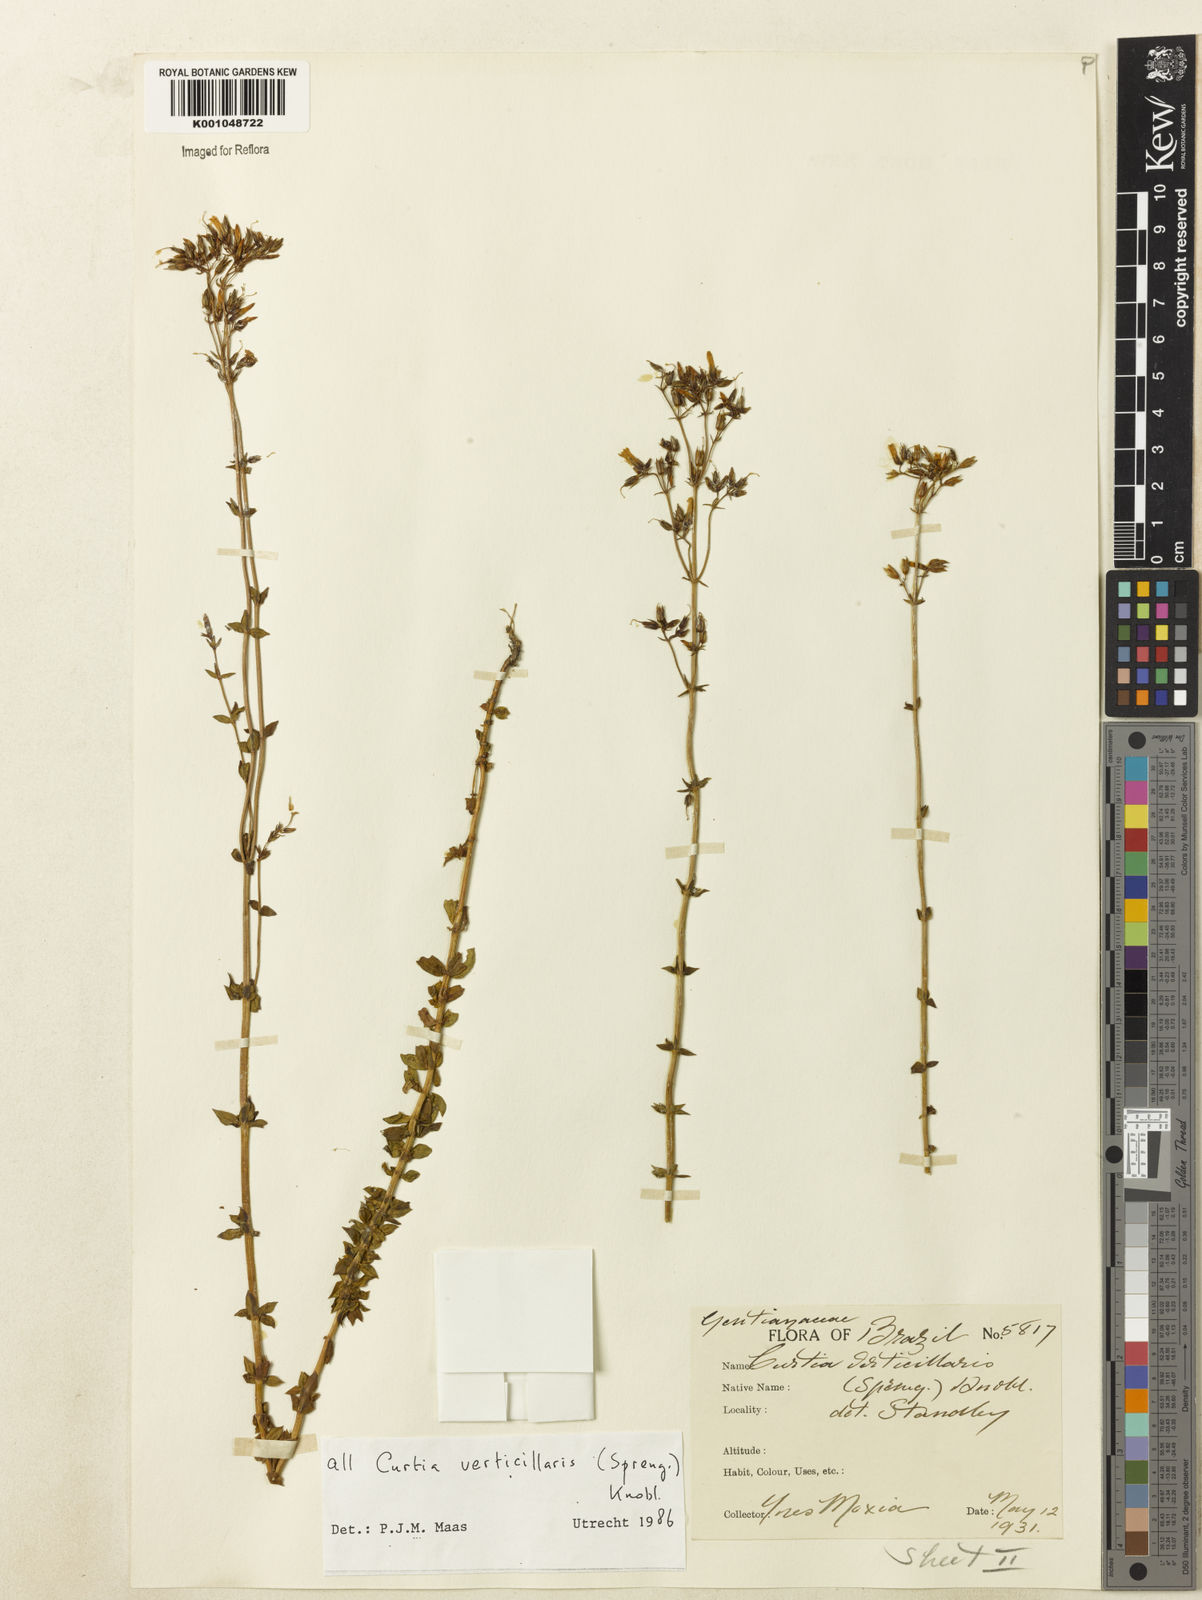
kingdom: Plantae
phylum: Tracheophyta
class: Magnoliopsida
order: Gentianales
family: Gentianaceae
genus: Curtia
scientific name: Curtia verticillaris
